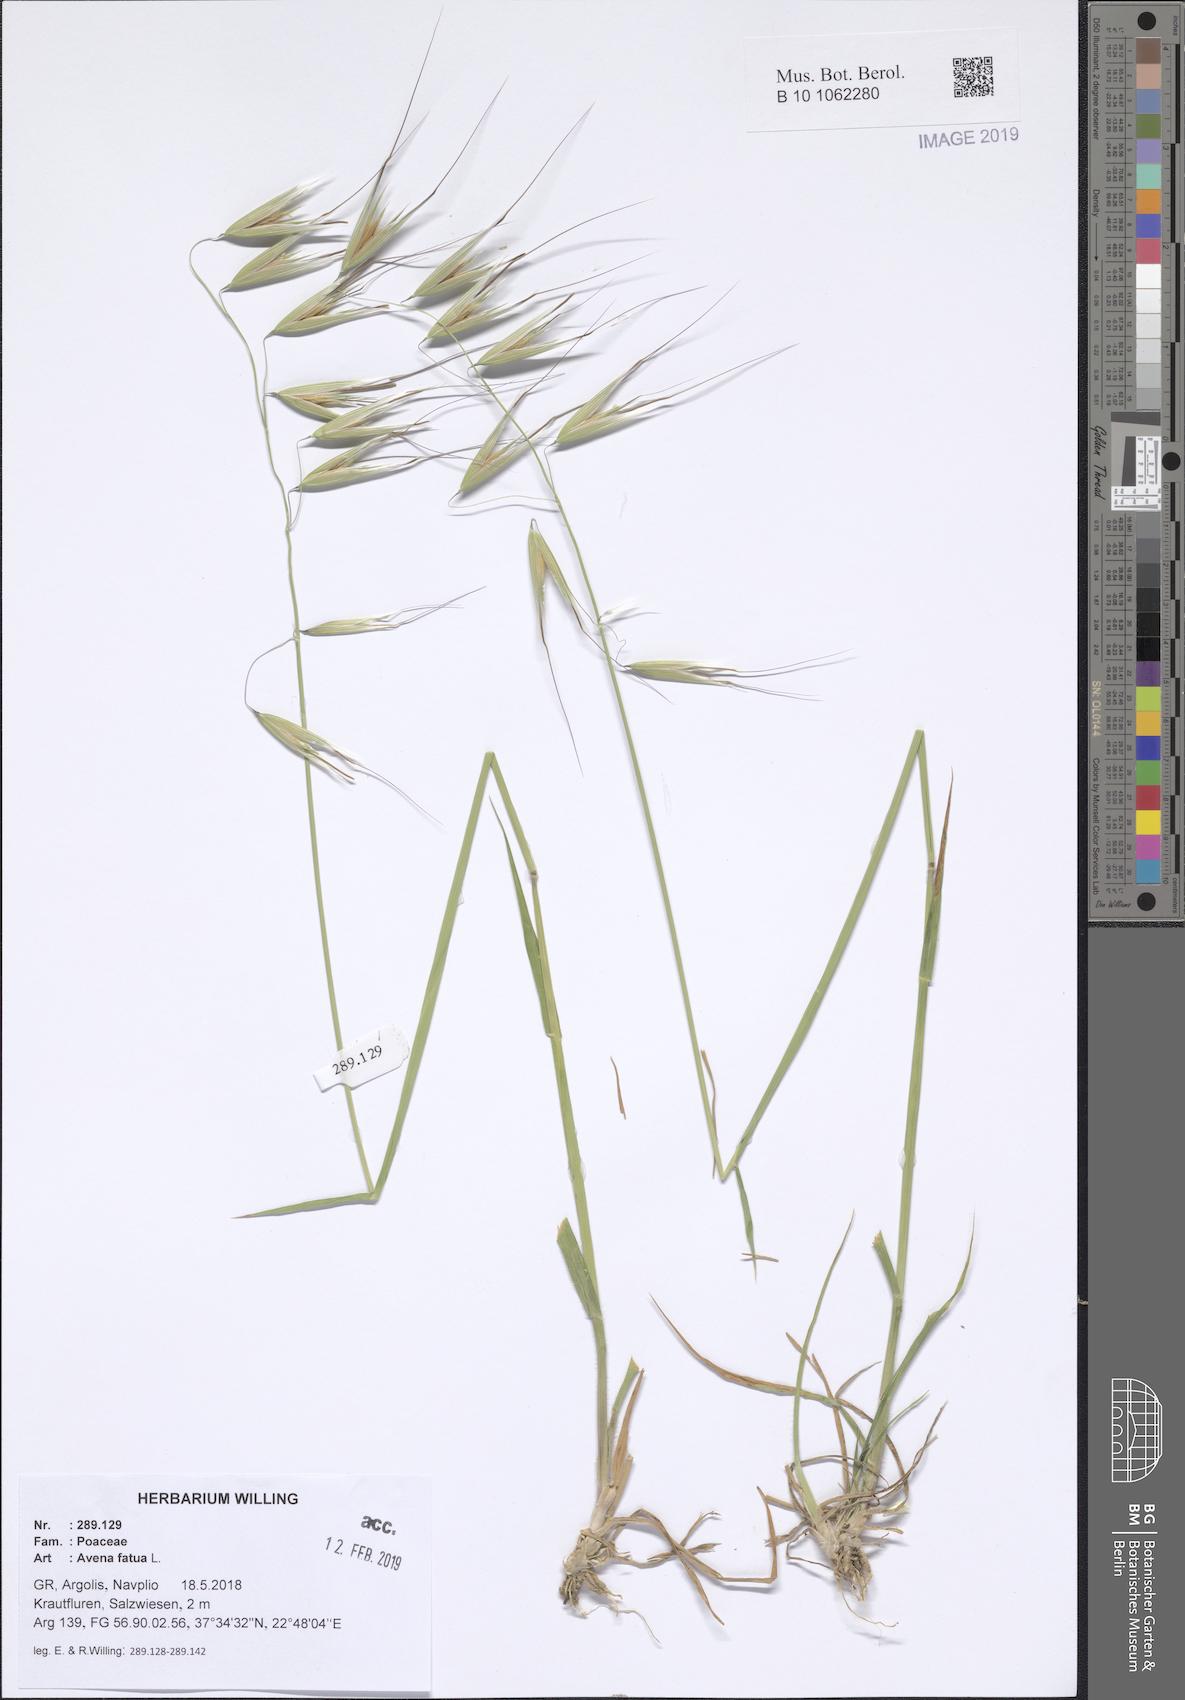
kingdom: Plantae
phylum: Tracheophyta
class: Liliopsida
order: Poales
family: Poaceae
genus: Avena
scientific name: Avena fatua
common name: Wild oat
